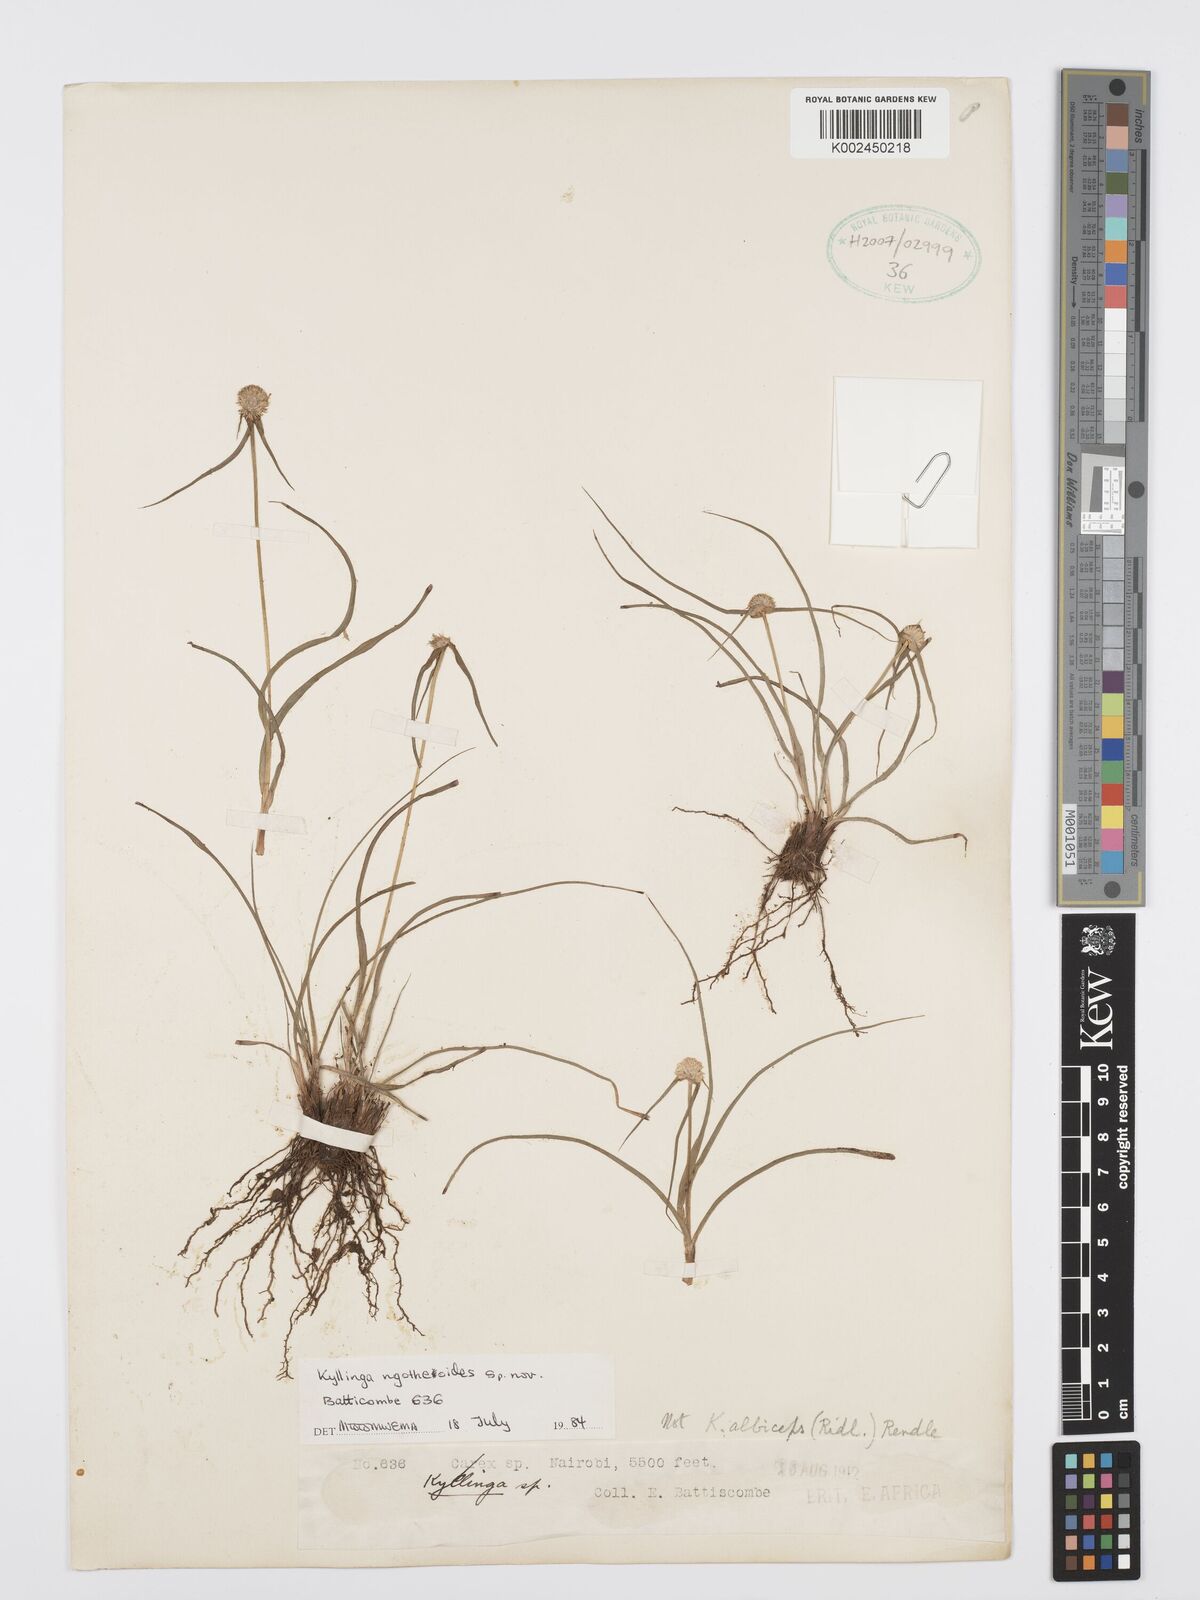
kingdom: Plantae
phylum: Tracheophyta
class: Liliopsida
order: Poales
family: Cyperaceae
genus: Cyperus
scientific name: Cyperus
